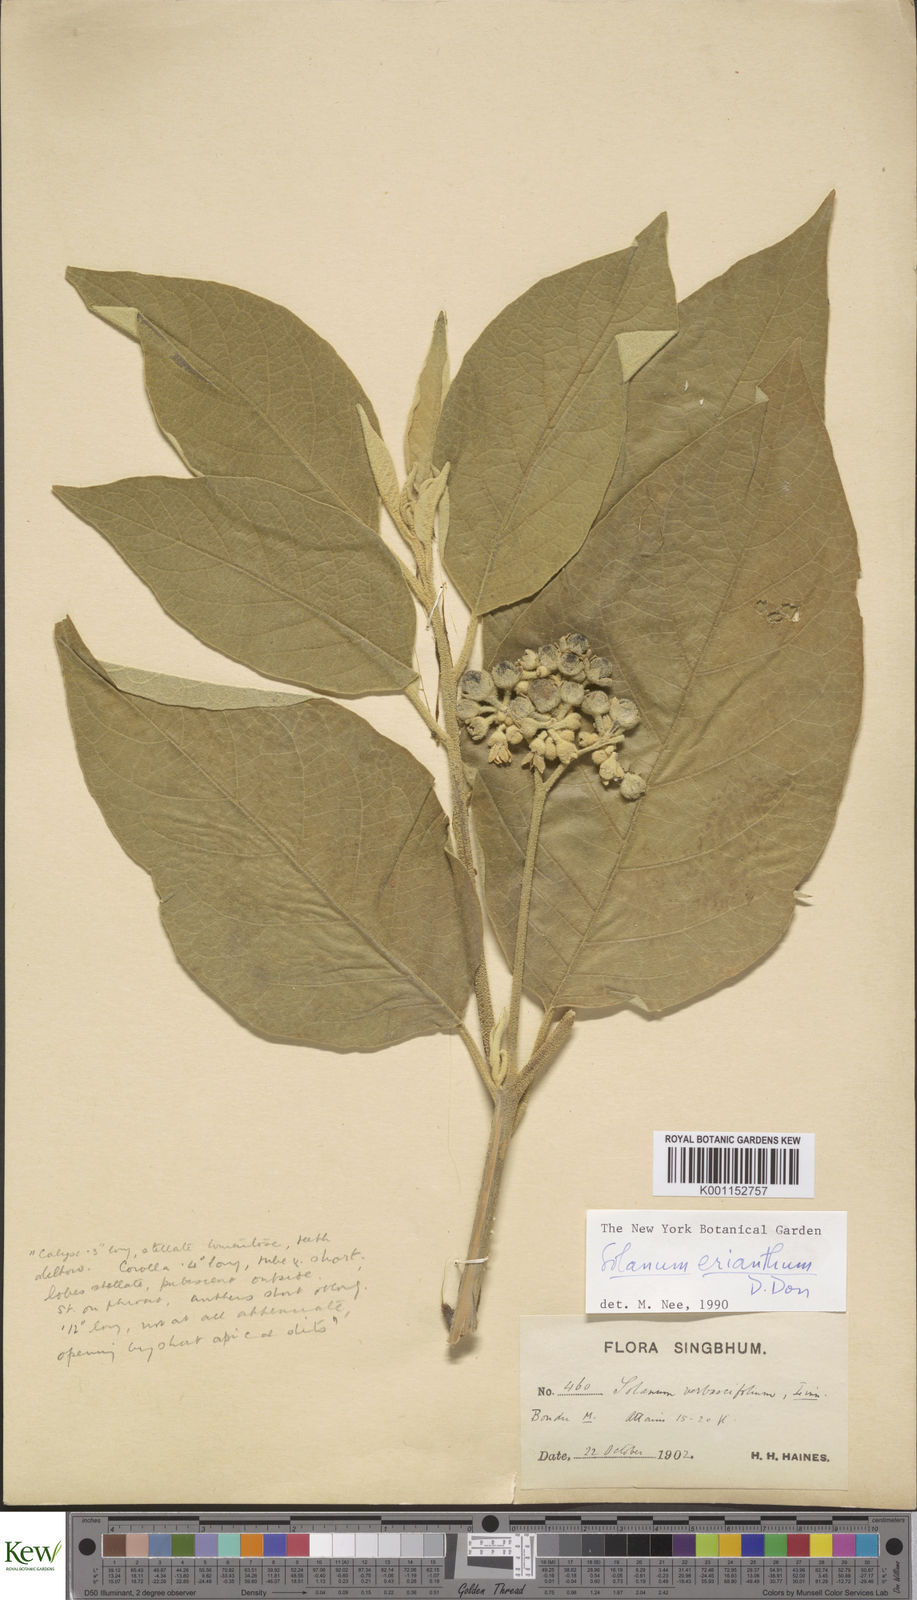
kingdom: Plantae
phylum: Tracheophyta
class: Magnoliopsida
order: Solanales
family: Solanaceae
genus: Solanum
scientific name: Solanum erianthum
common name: Tobacco-tree
